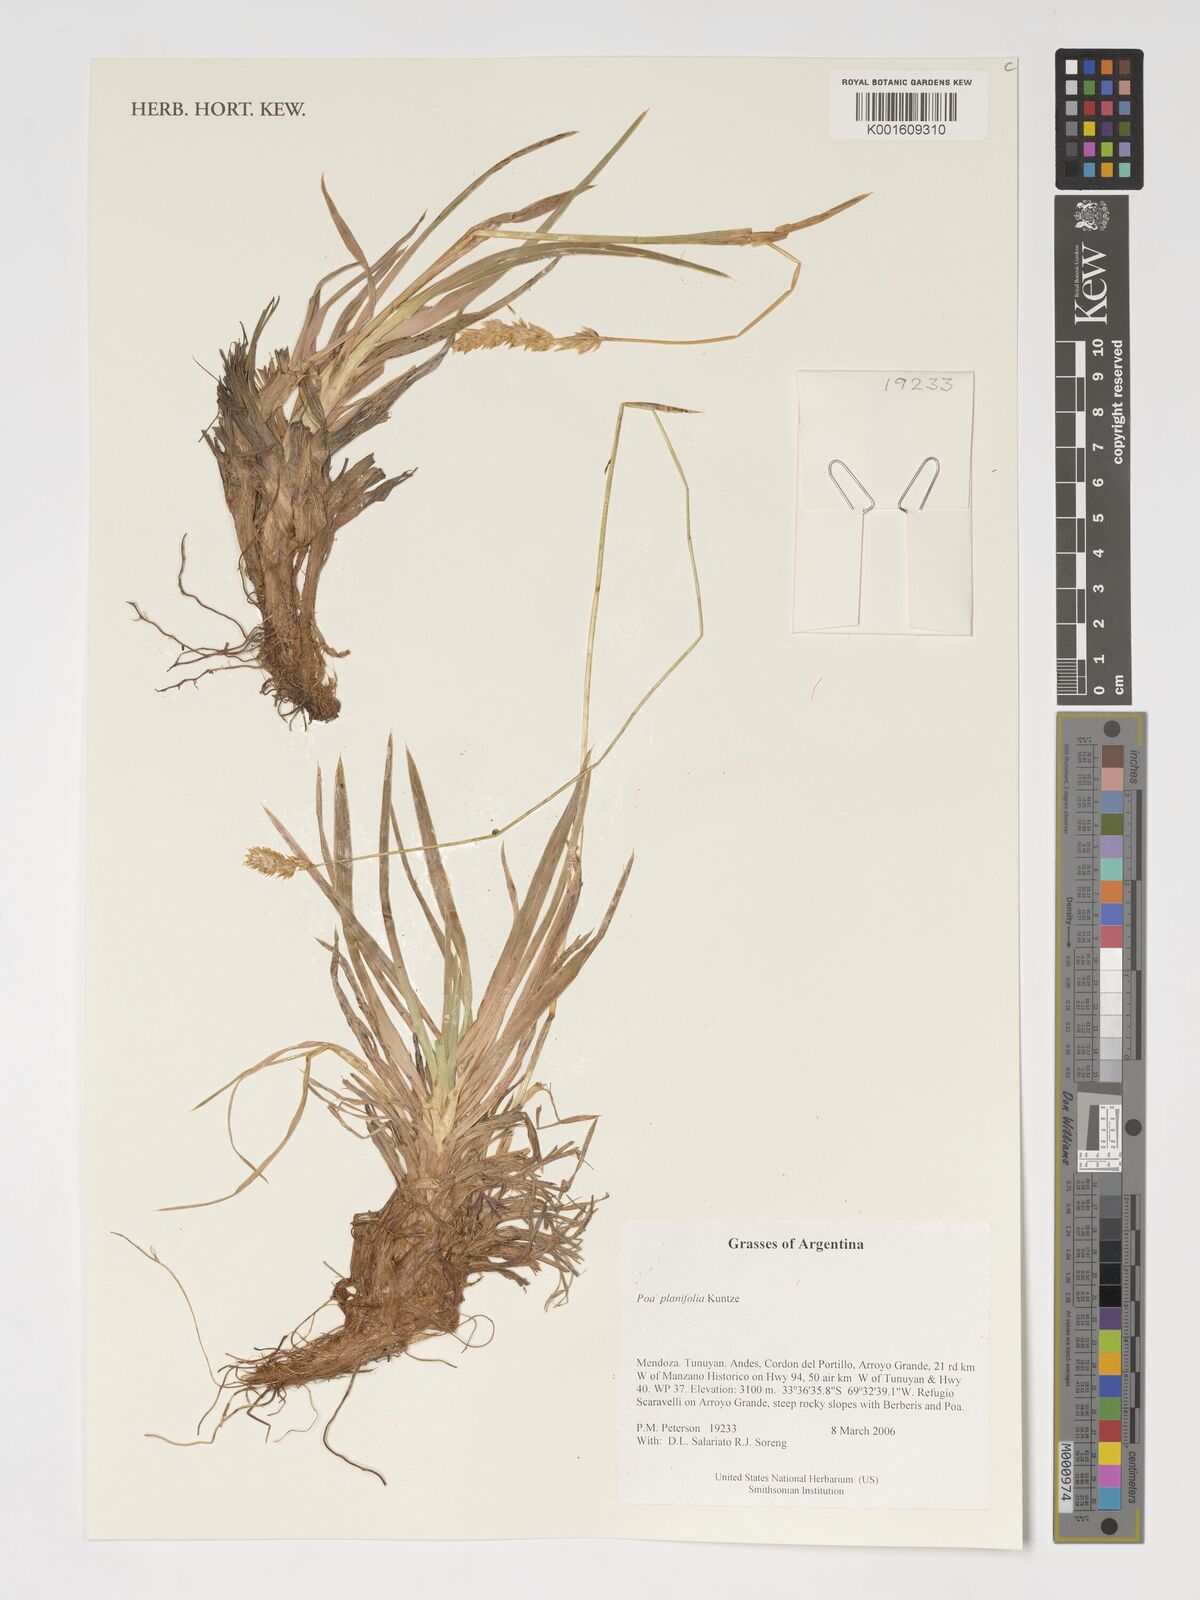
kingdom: Plantae
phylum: Tracheophyta
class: Liliopsida
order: Poales
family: Poaceae
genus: Poa
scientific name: Poa planifolia
